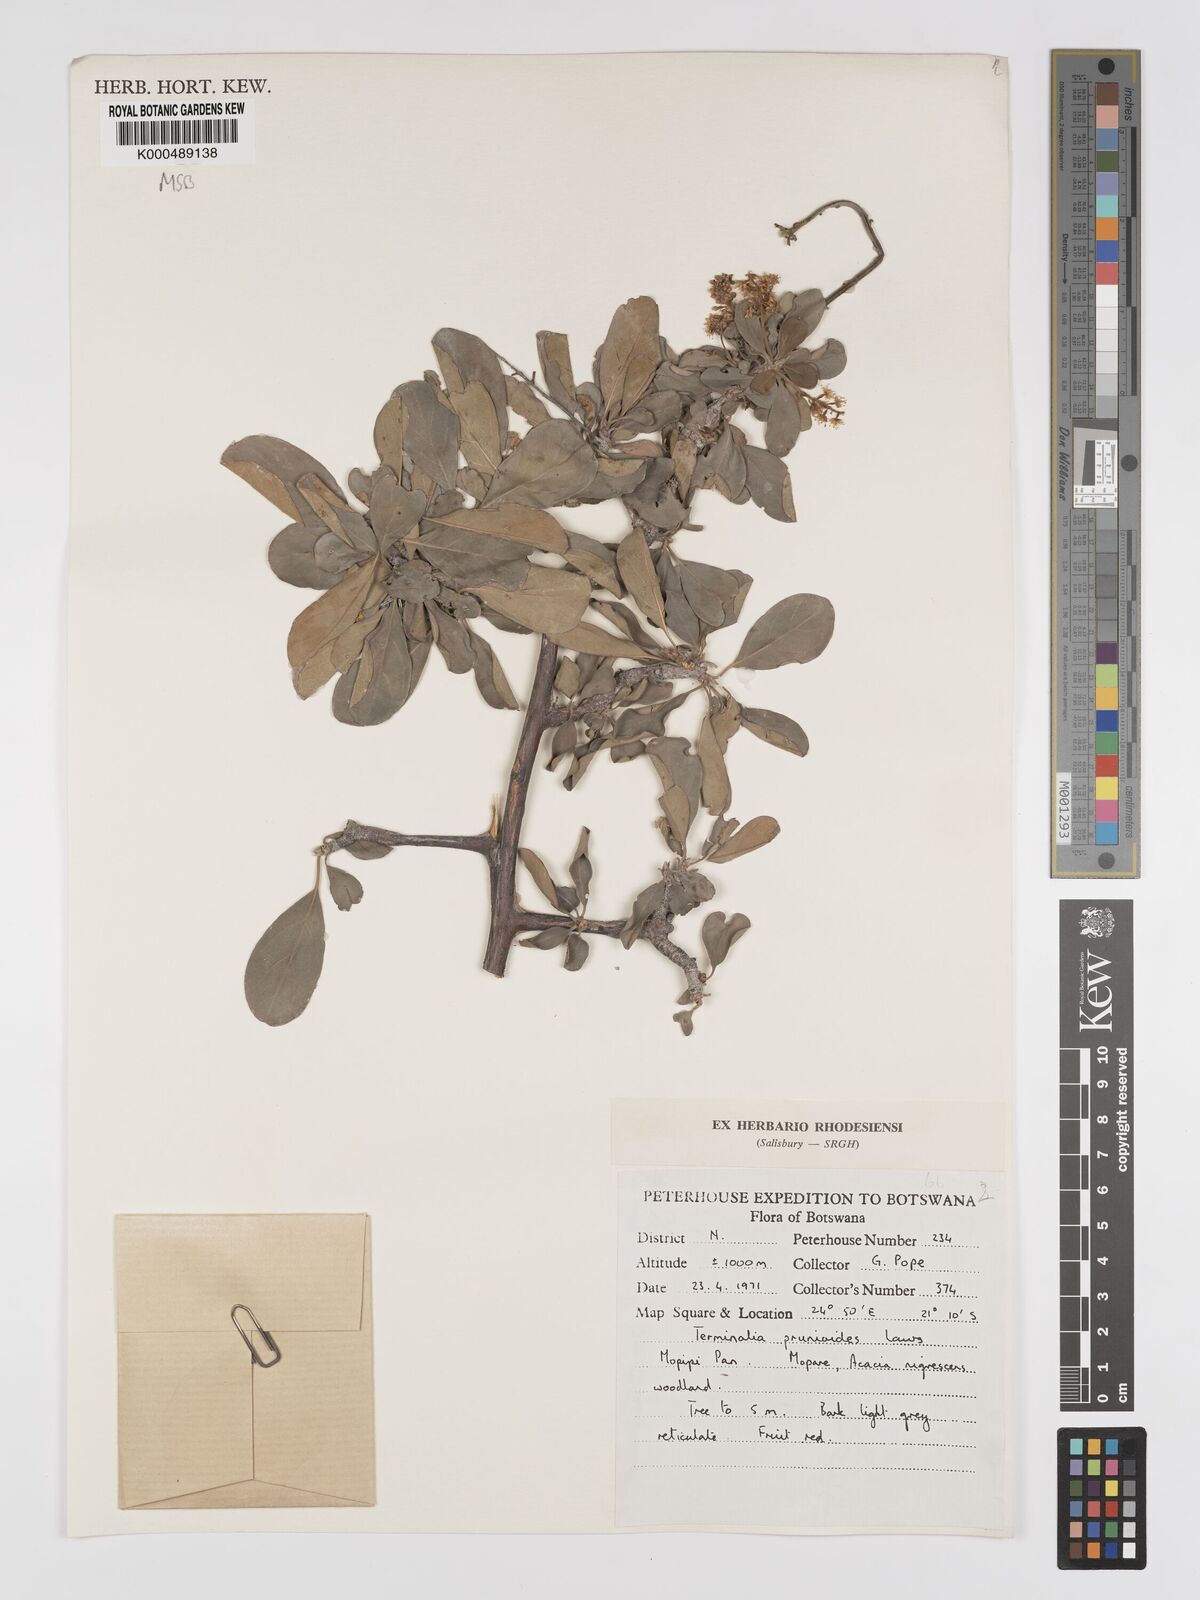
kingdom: Plantae
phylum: Tracheophyta
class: Magnoliopsida
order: Myrtales
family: Combretaceae
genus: Terminalia
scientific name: Terminalia prunioides
